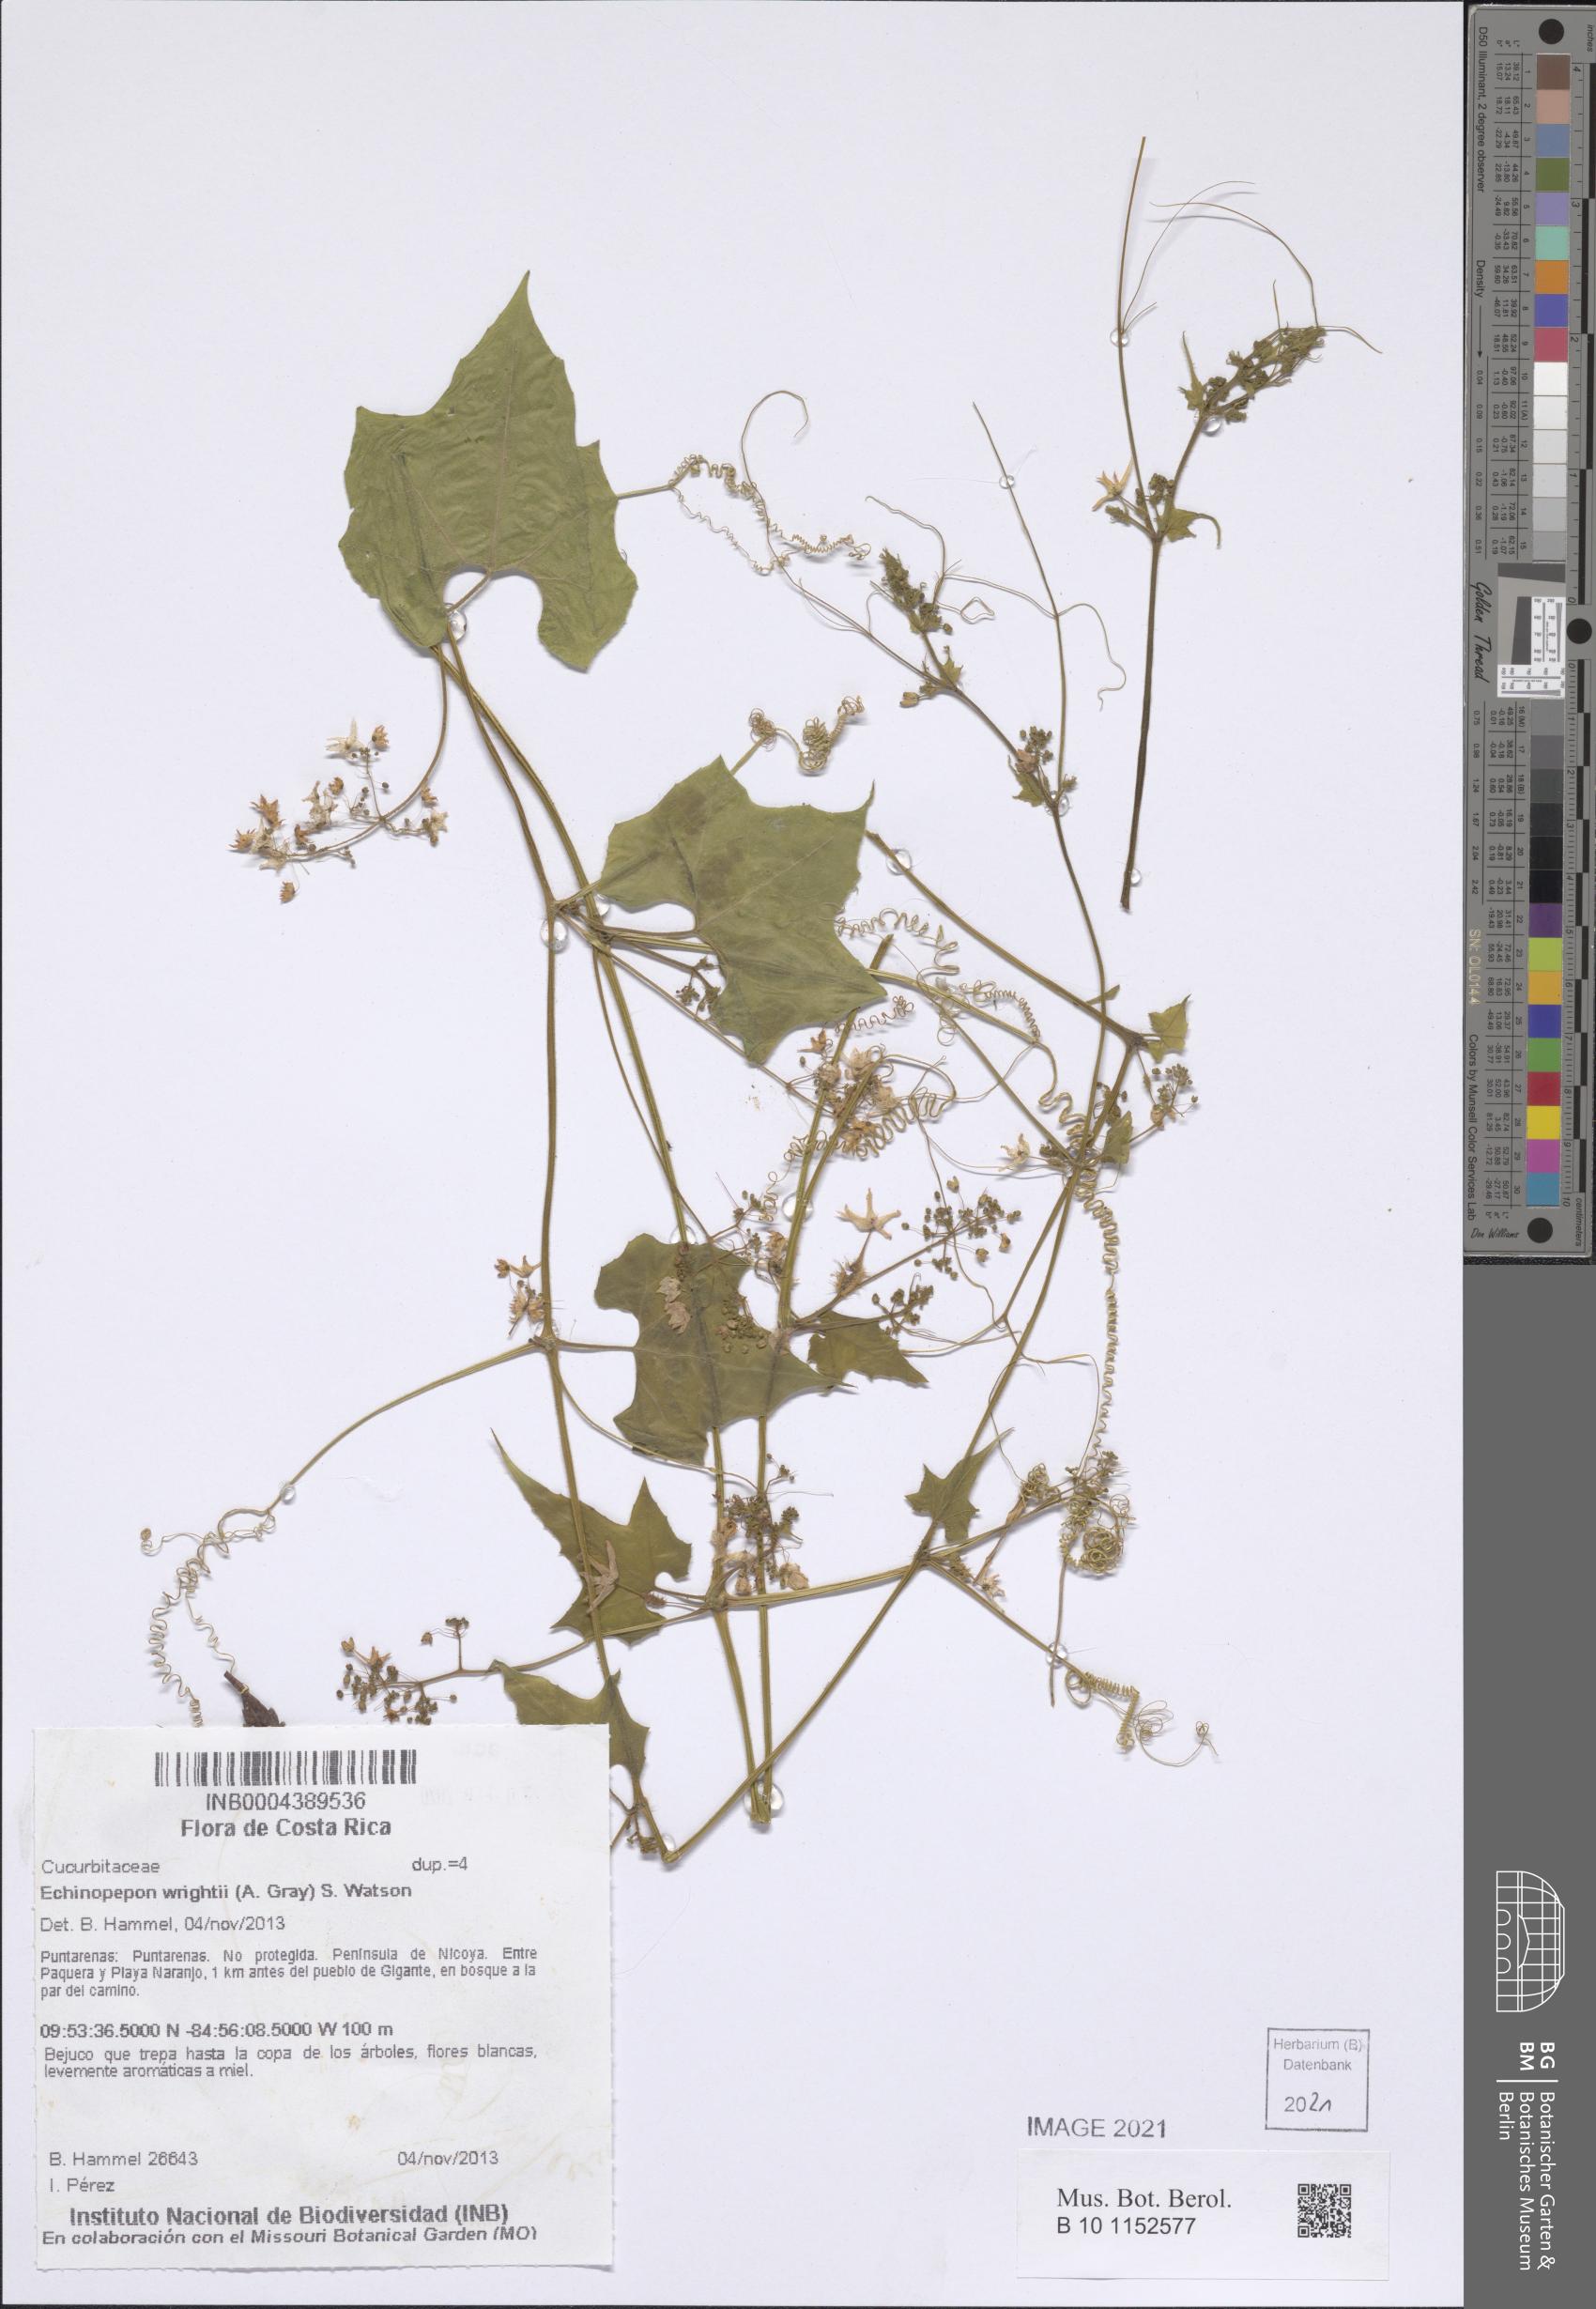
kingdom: Plantae
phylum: Tracheophyta
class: Magnoliopsida
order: Cucurbitales
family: Cucurbitaceae
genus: Echinopepon
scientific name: Echinopepon wrightii
